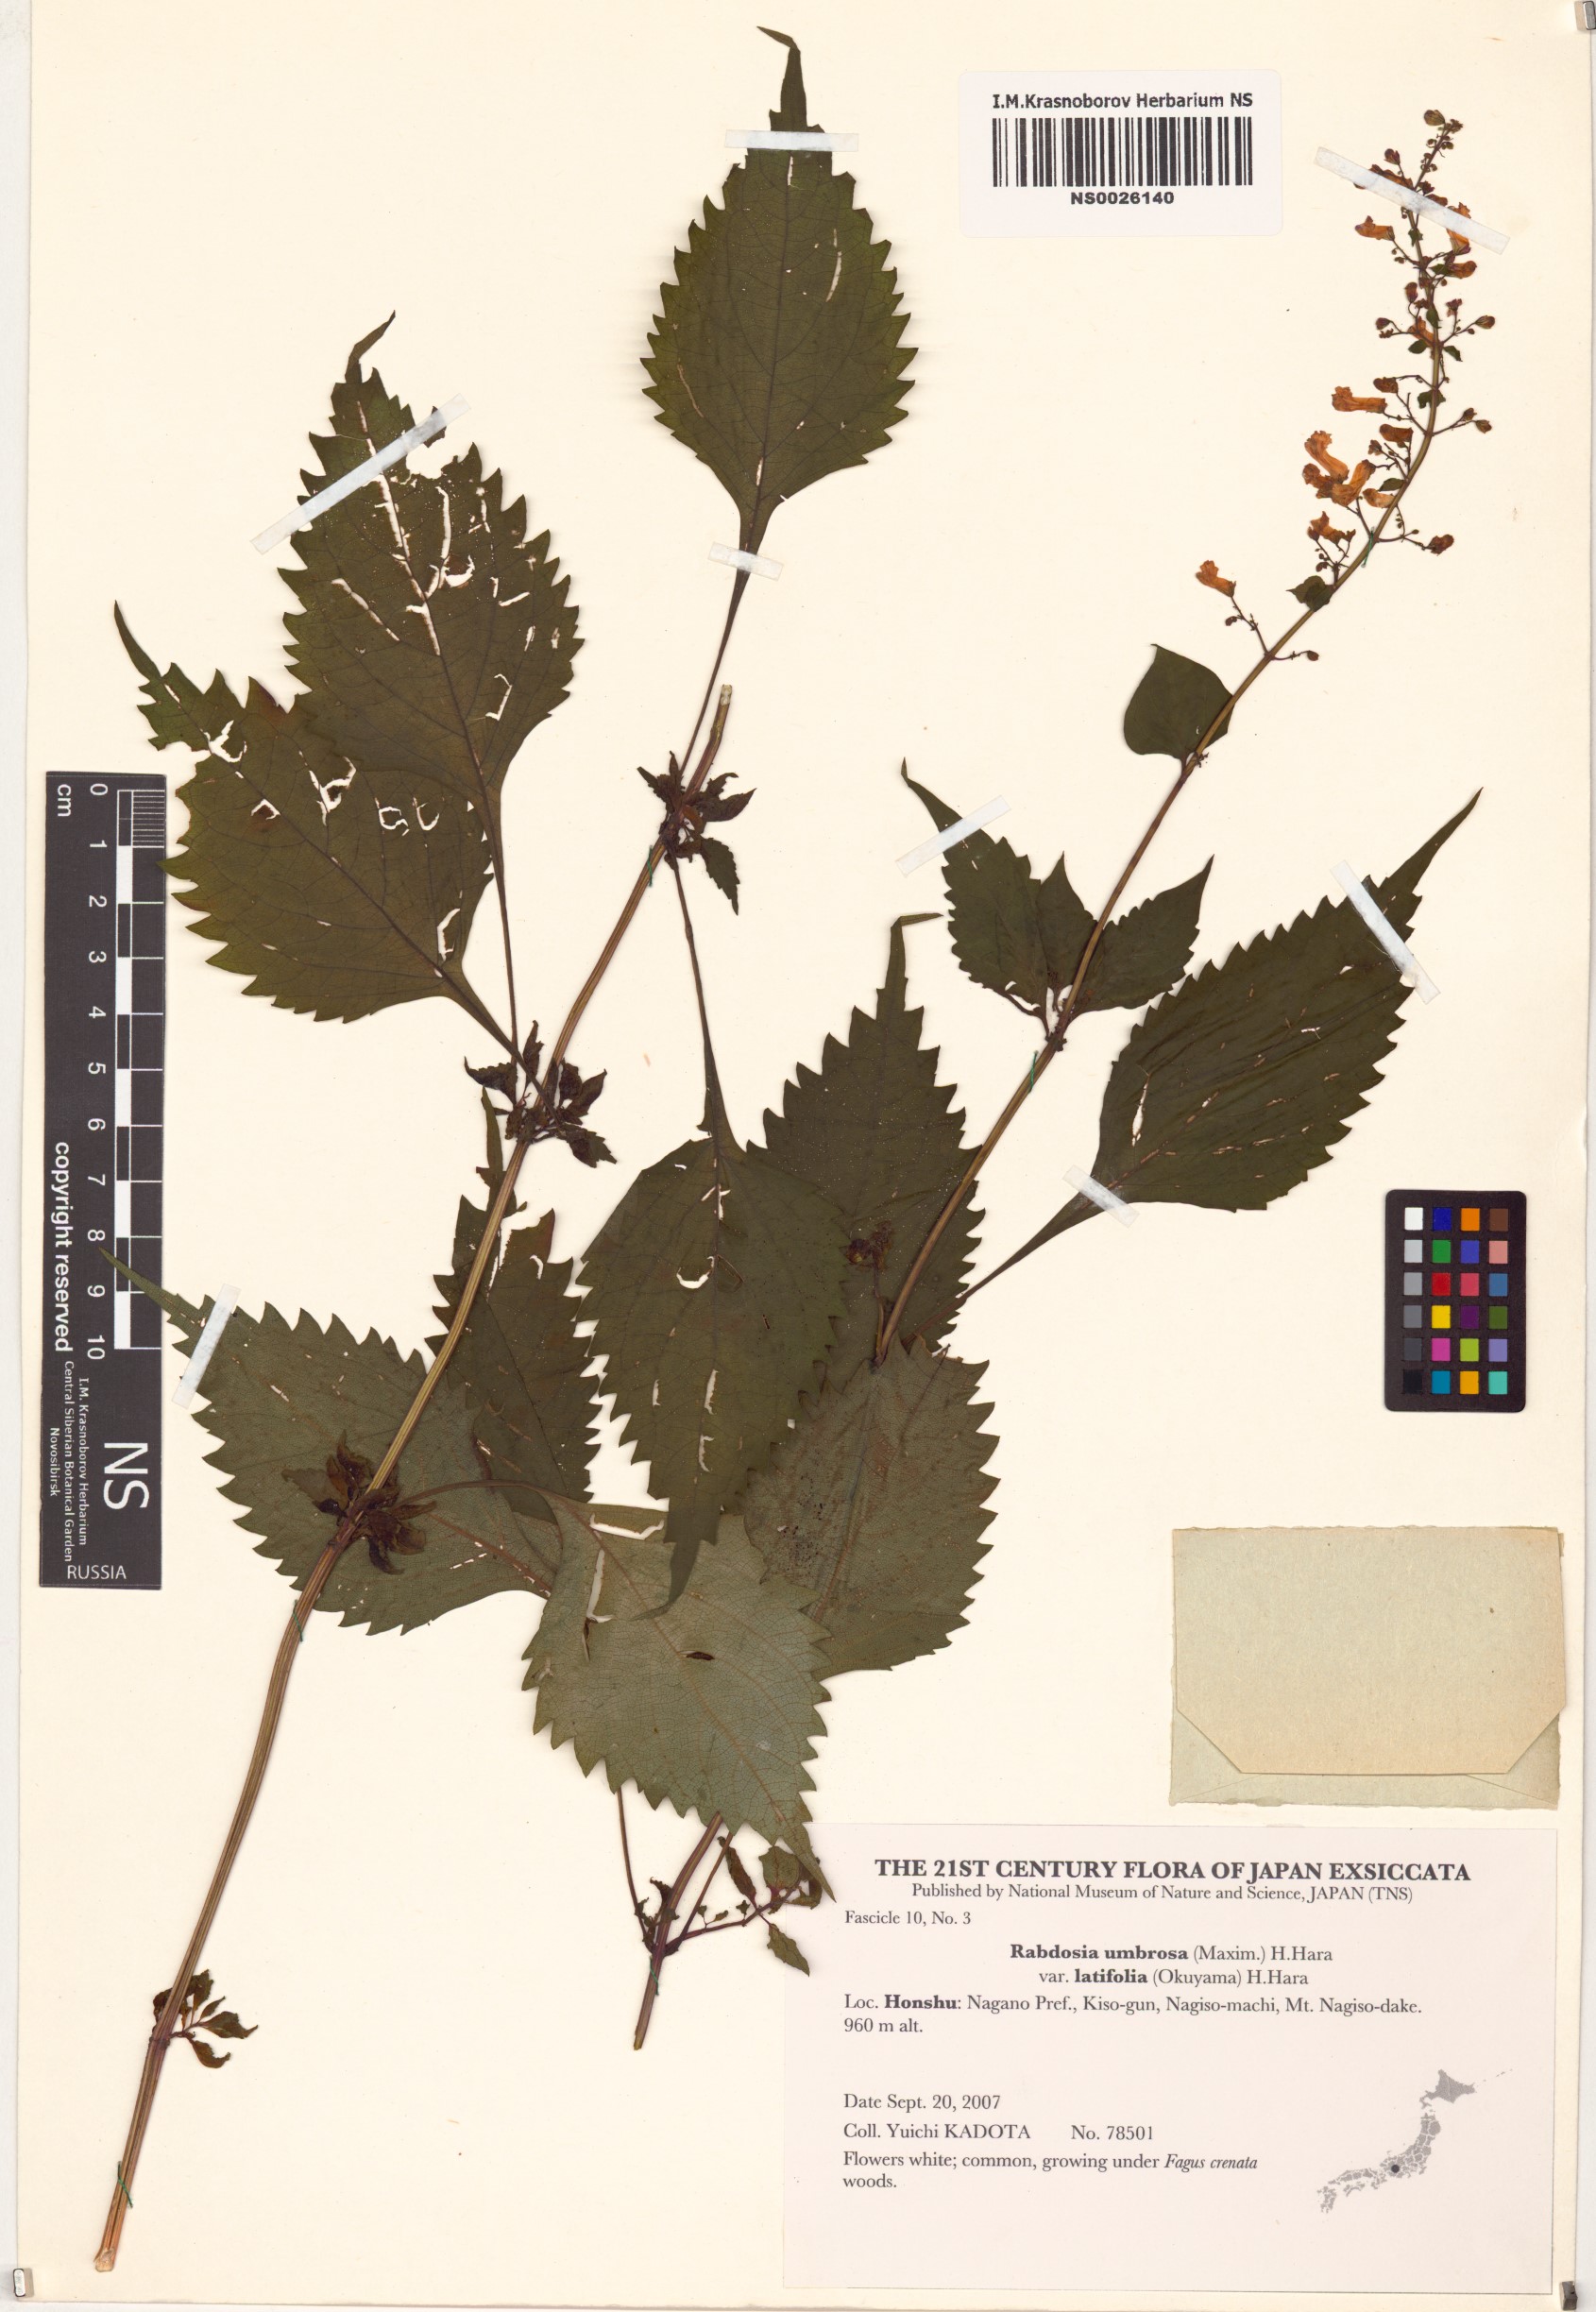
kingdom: Plantae
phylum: Tracheophyta
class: Magnoliopsida
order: Lamiales
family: Lamiaceae
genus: Isodon
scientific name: Isodon umbrosus
